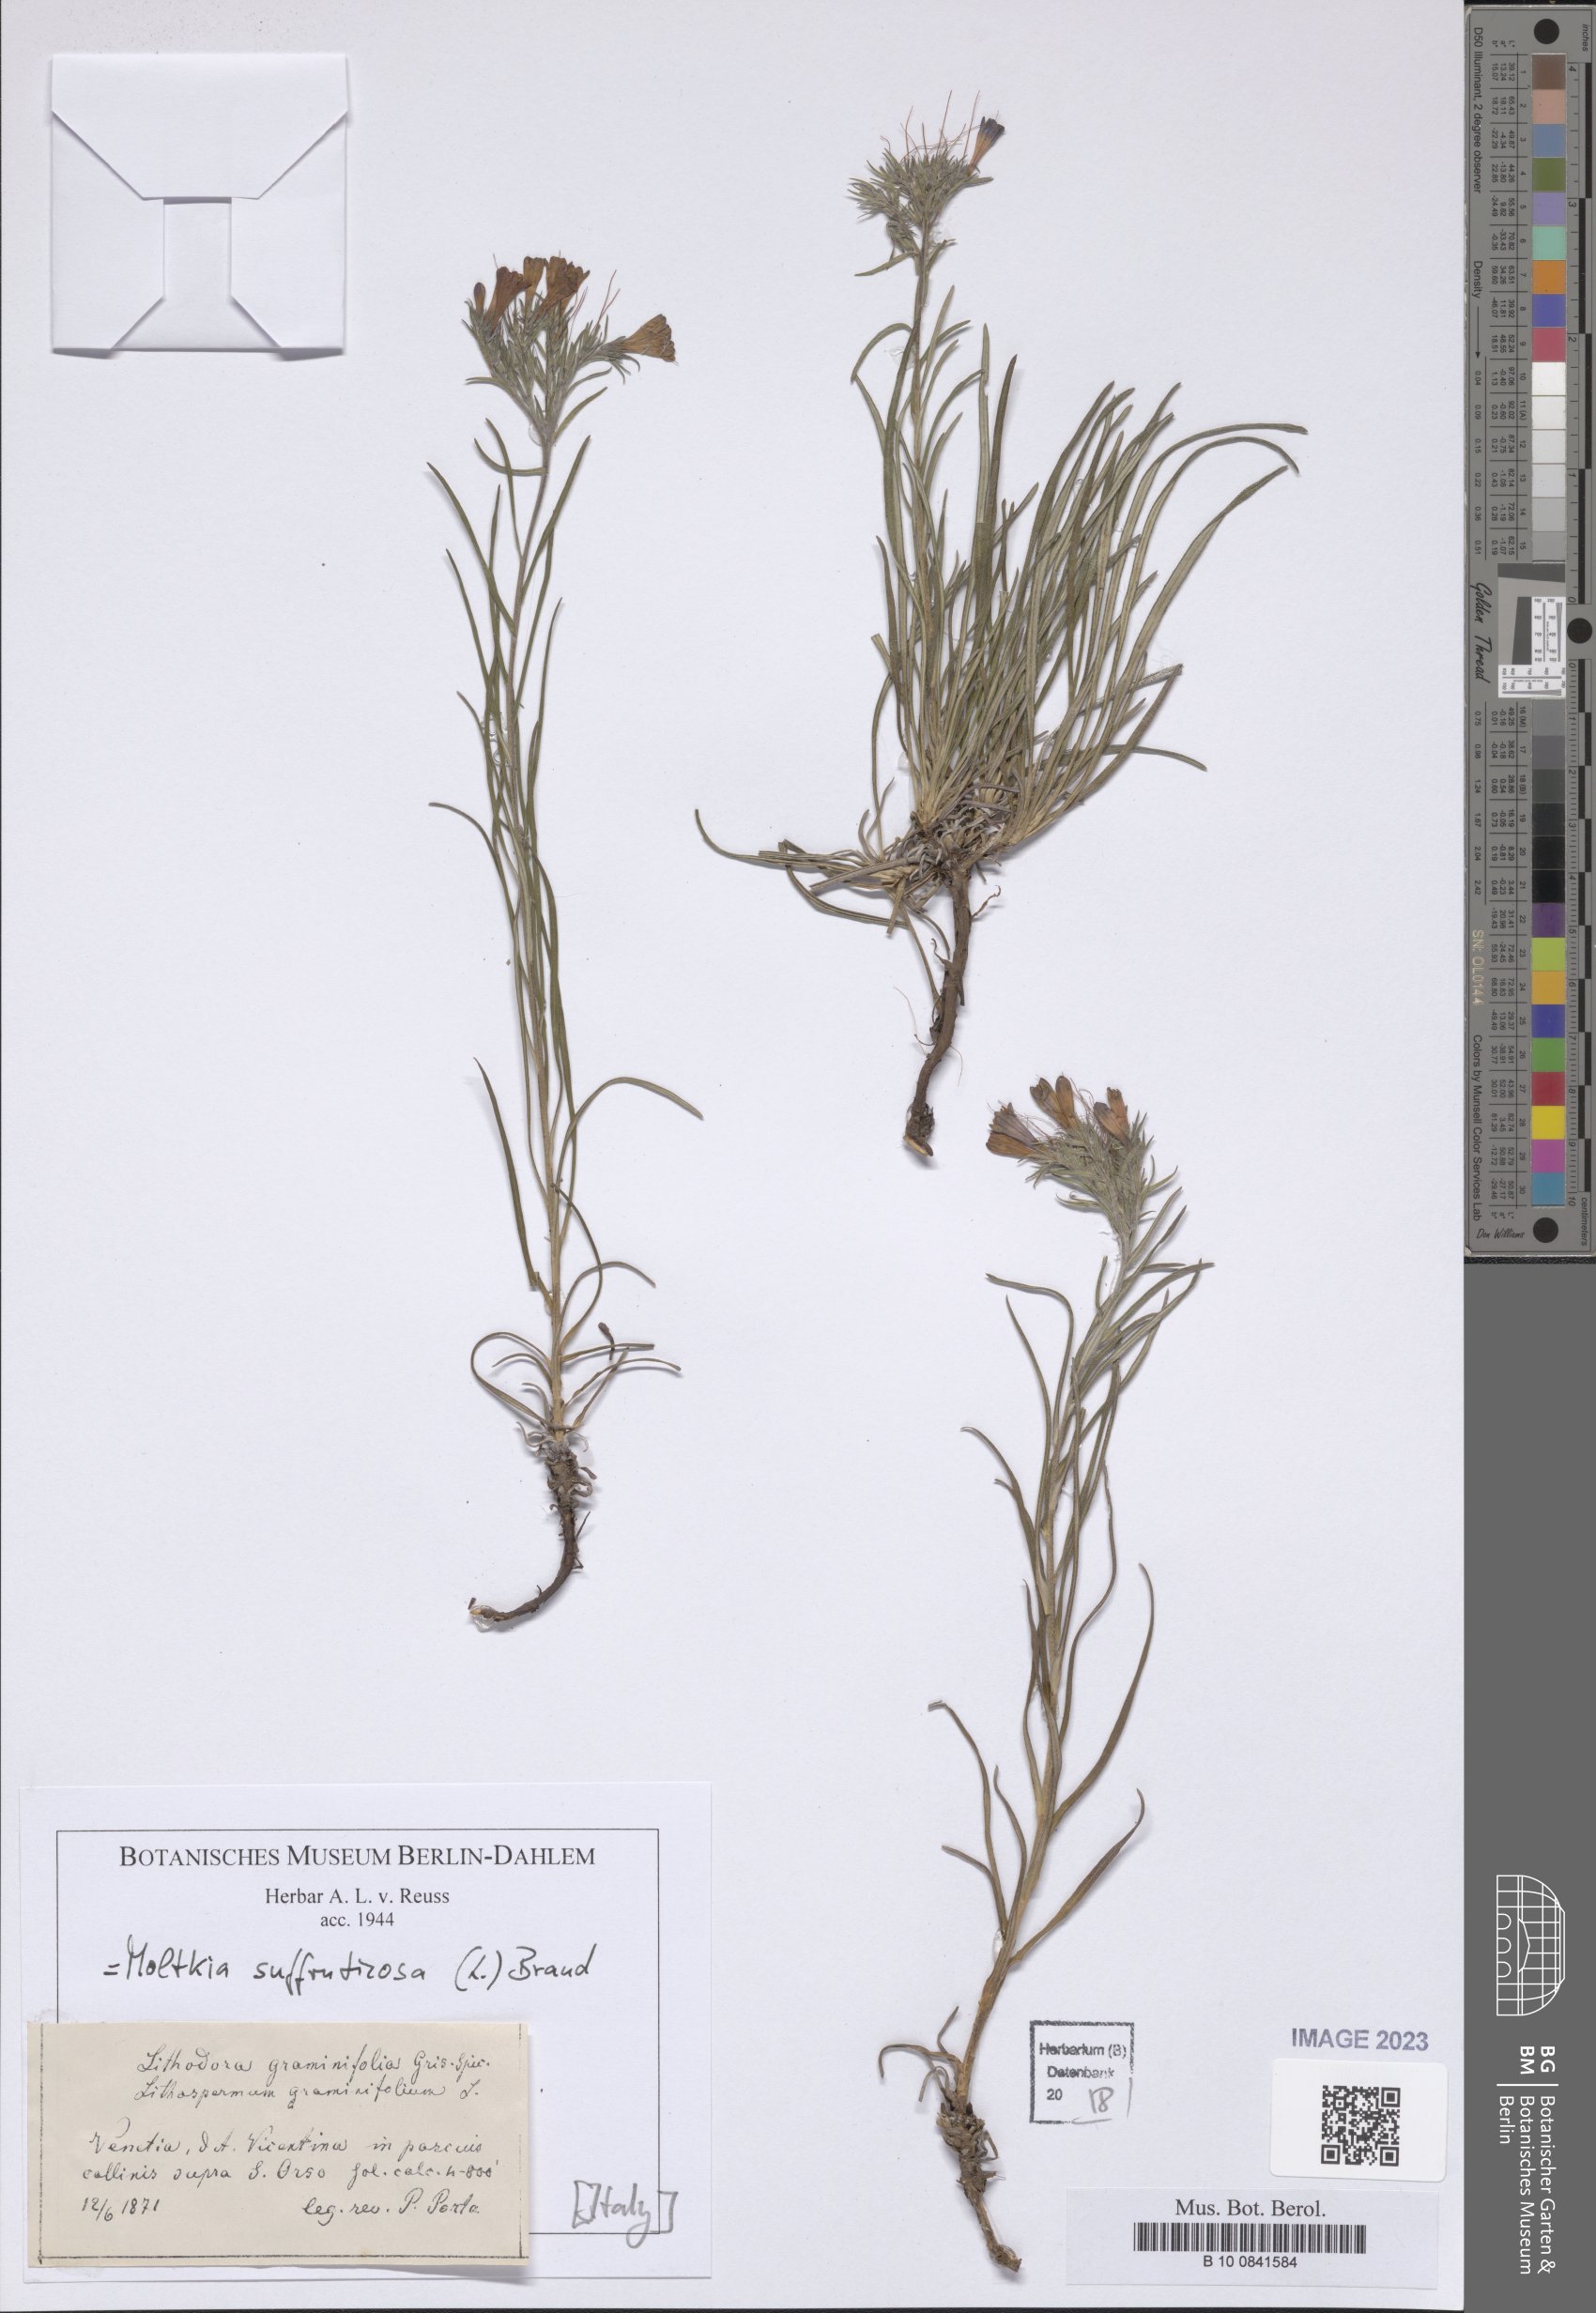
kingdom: Plantae
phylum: Tracheophyta
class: Magnoliopsida
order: Boraginales
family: Boraginaceae
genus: Moltkia
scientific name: Moltkia suffruticosa
